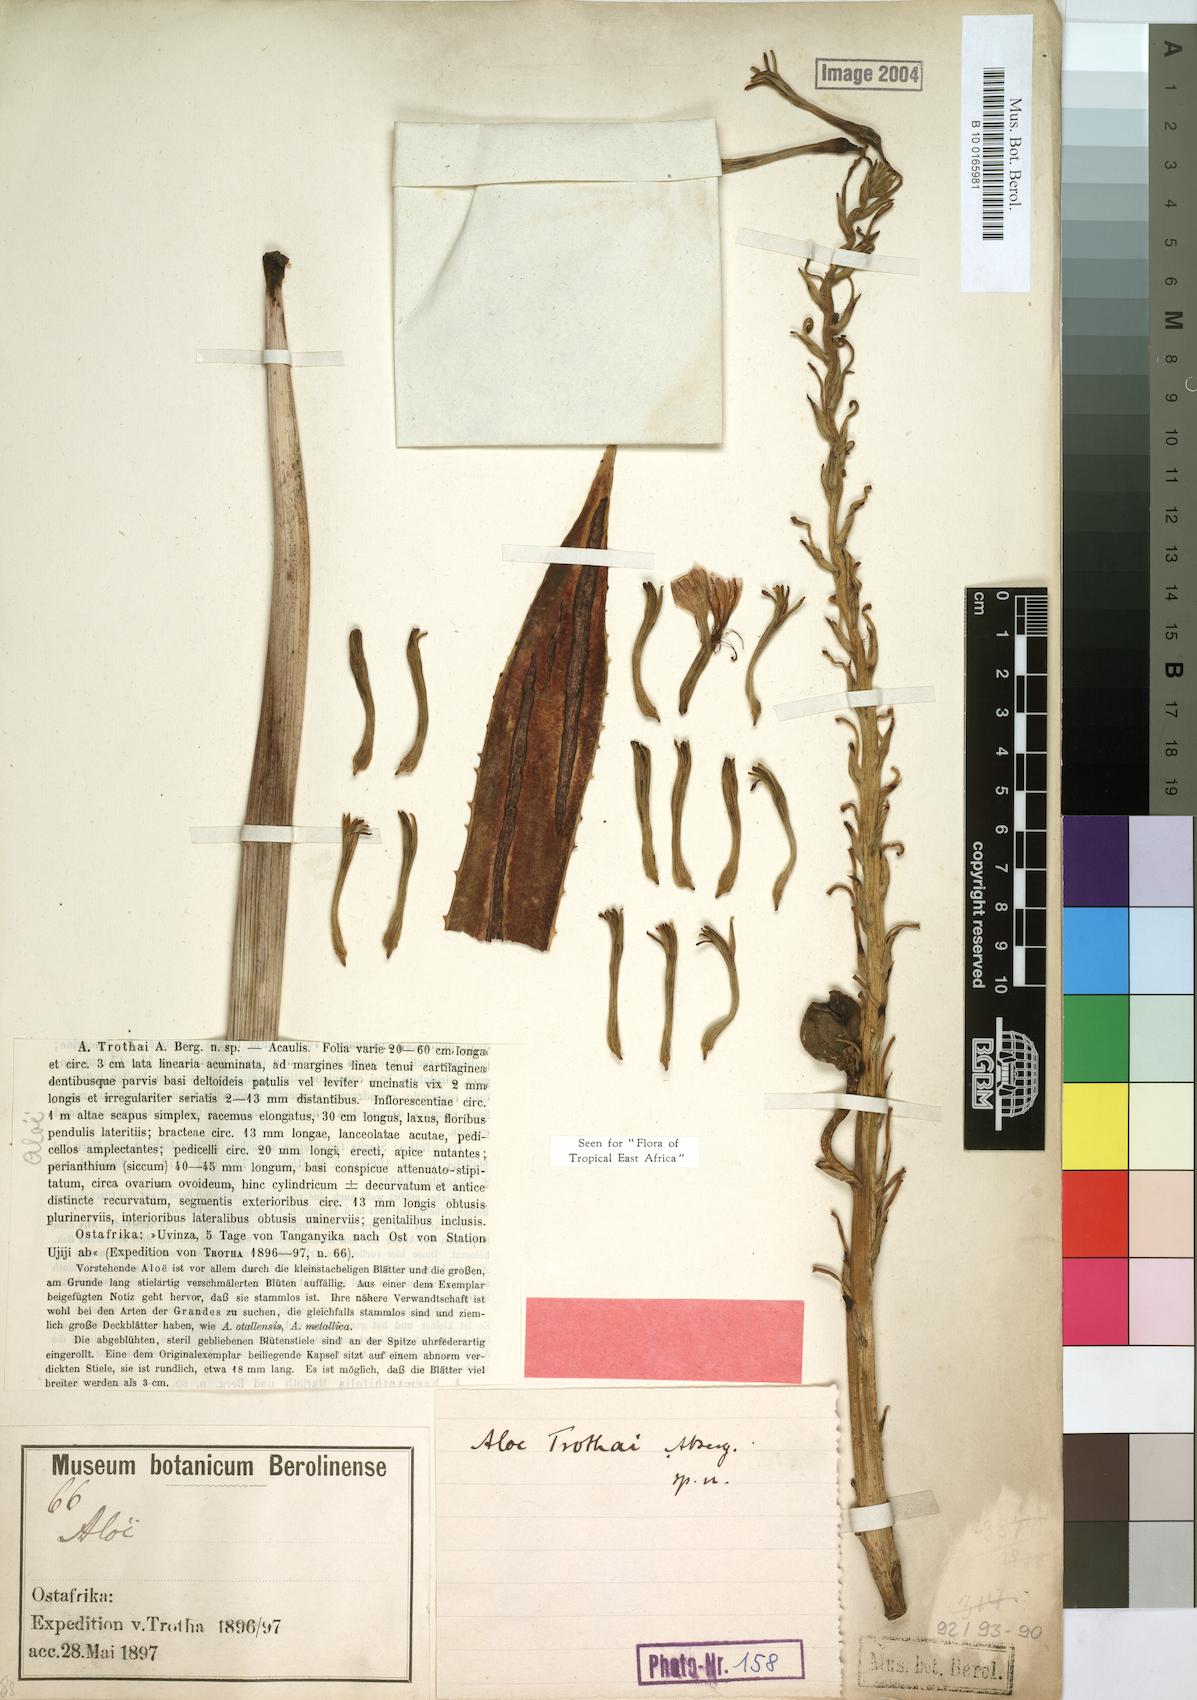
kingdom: Plantae
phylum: Tracheophyta
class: Liliopsida
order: Asparagales
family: Asphodelaceae
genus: Aloe
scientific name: Aloe trothae
